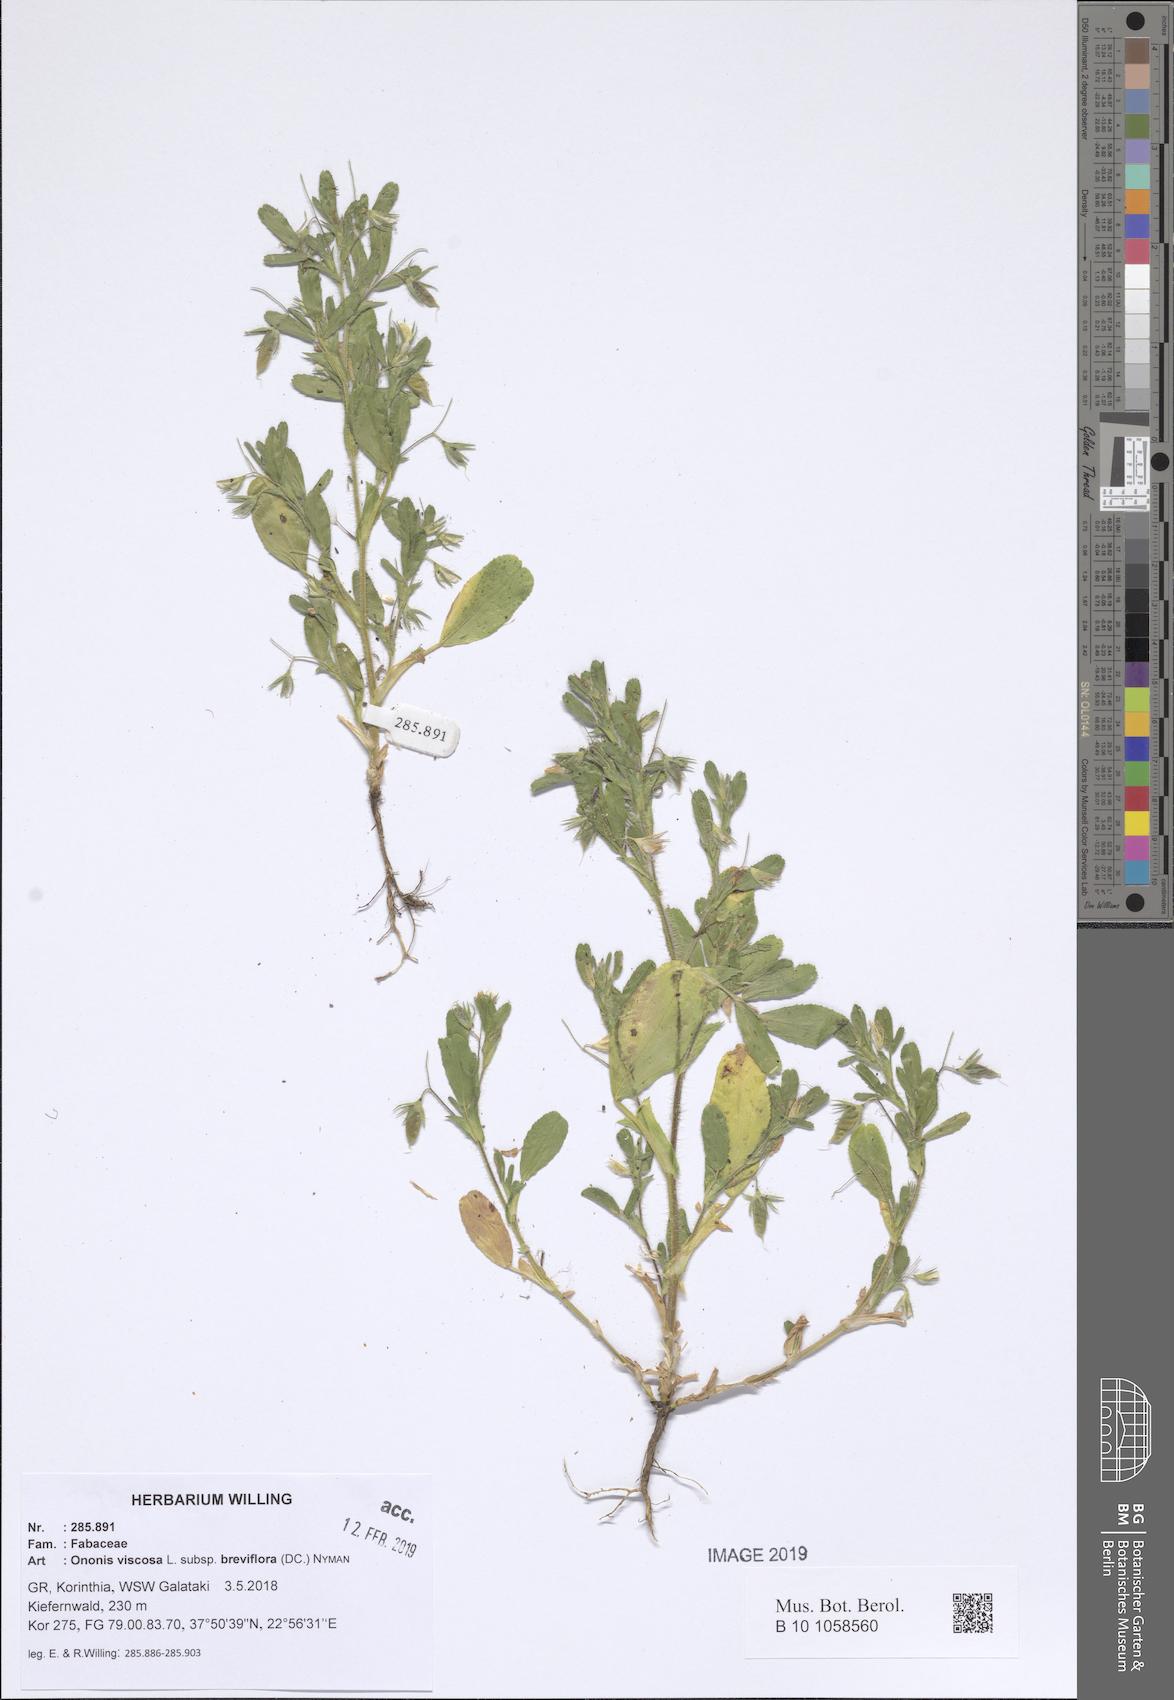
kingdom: Plantae
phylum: Tracheophyta
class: Magnoliopsida
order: Fabales
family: Fabaceae
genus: Ononis
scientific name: Ononis viscosa
